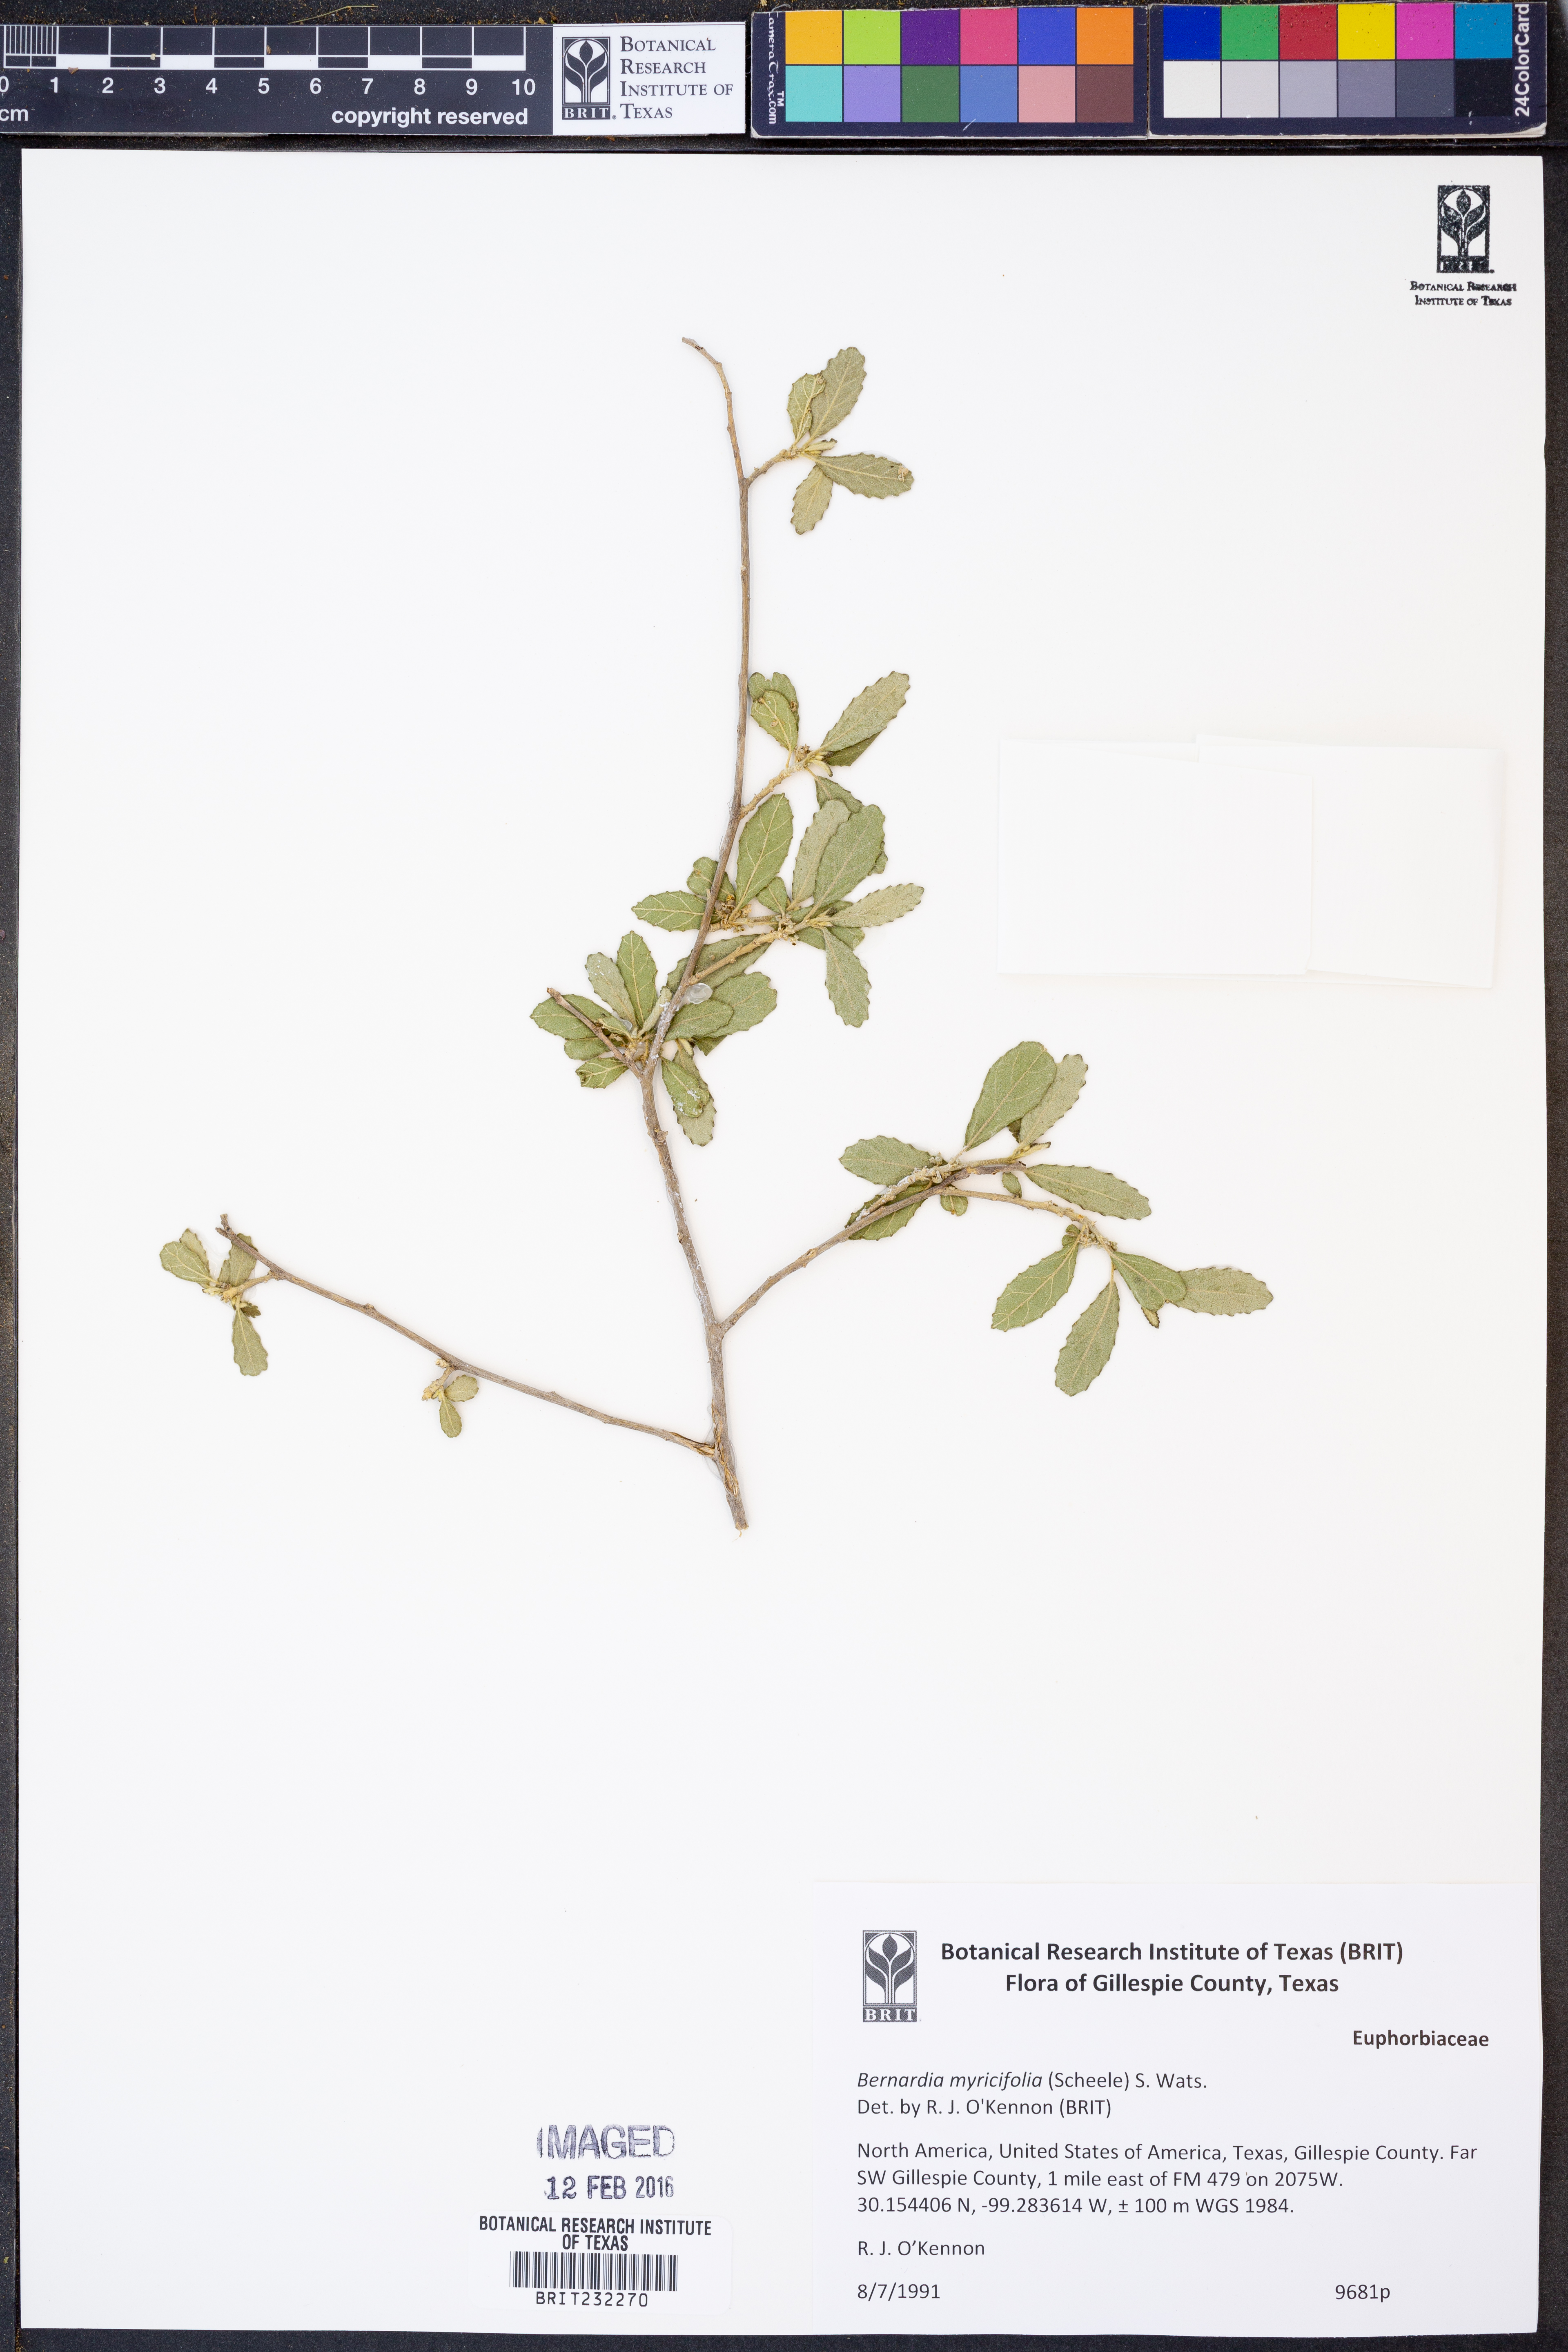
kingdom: Plantae
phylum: Tracheophyta
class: Magnoliopsida
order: Malpighiales
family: Euphorbiaceae
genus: Bernardia
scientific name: Bernardia myricifolia
